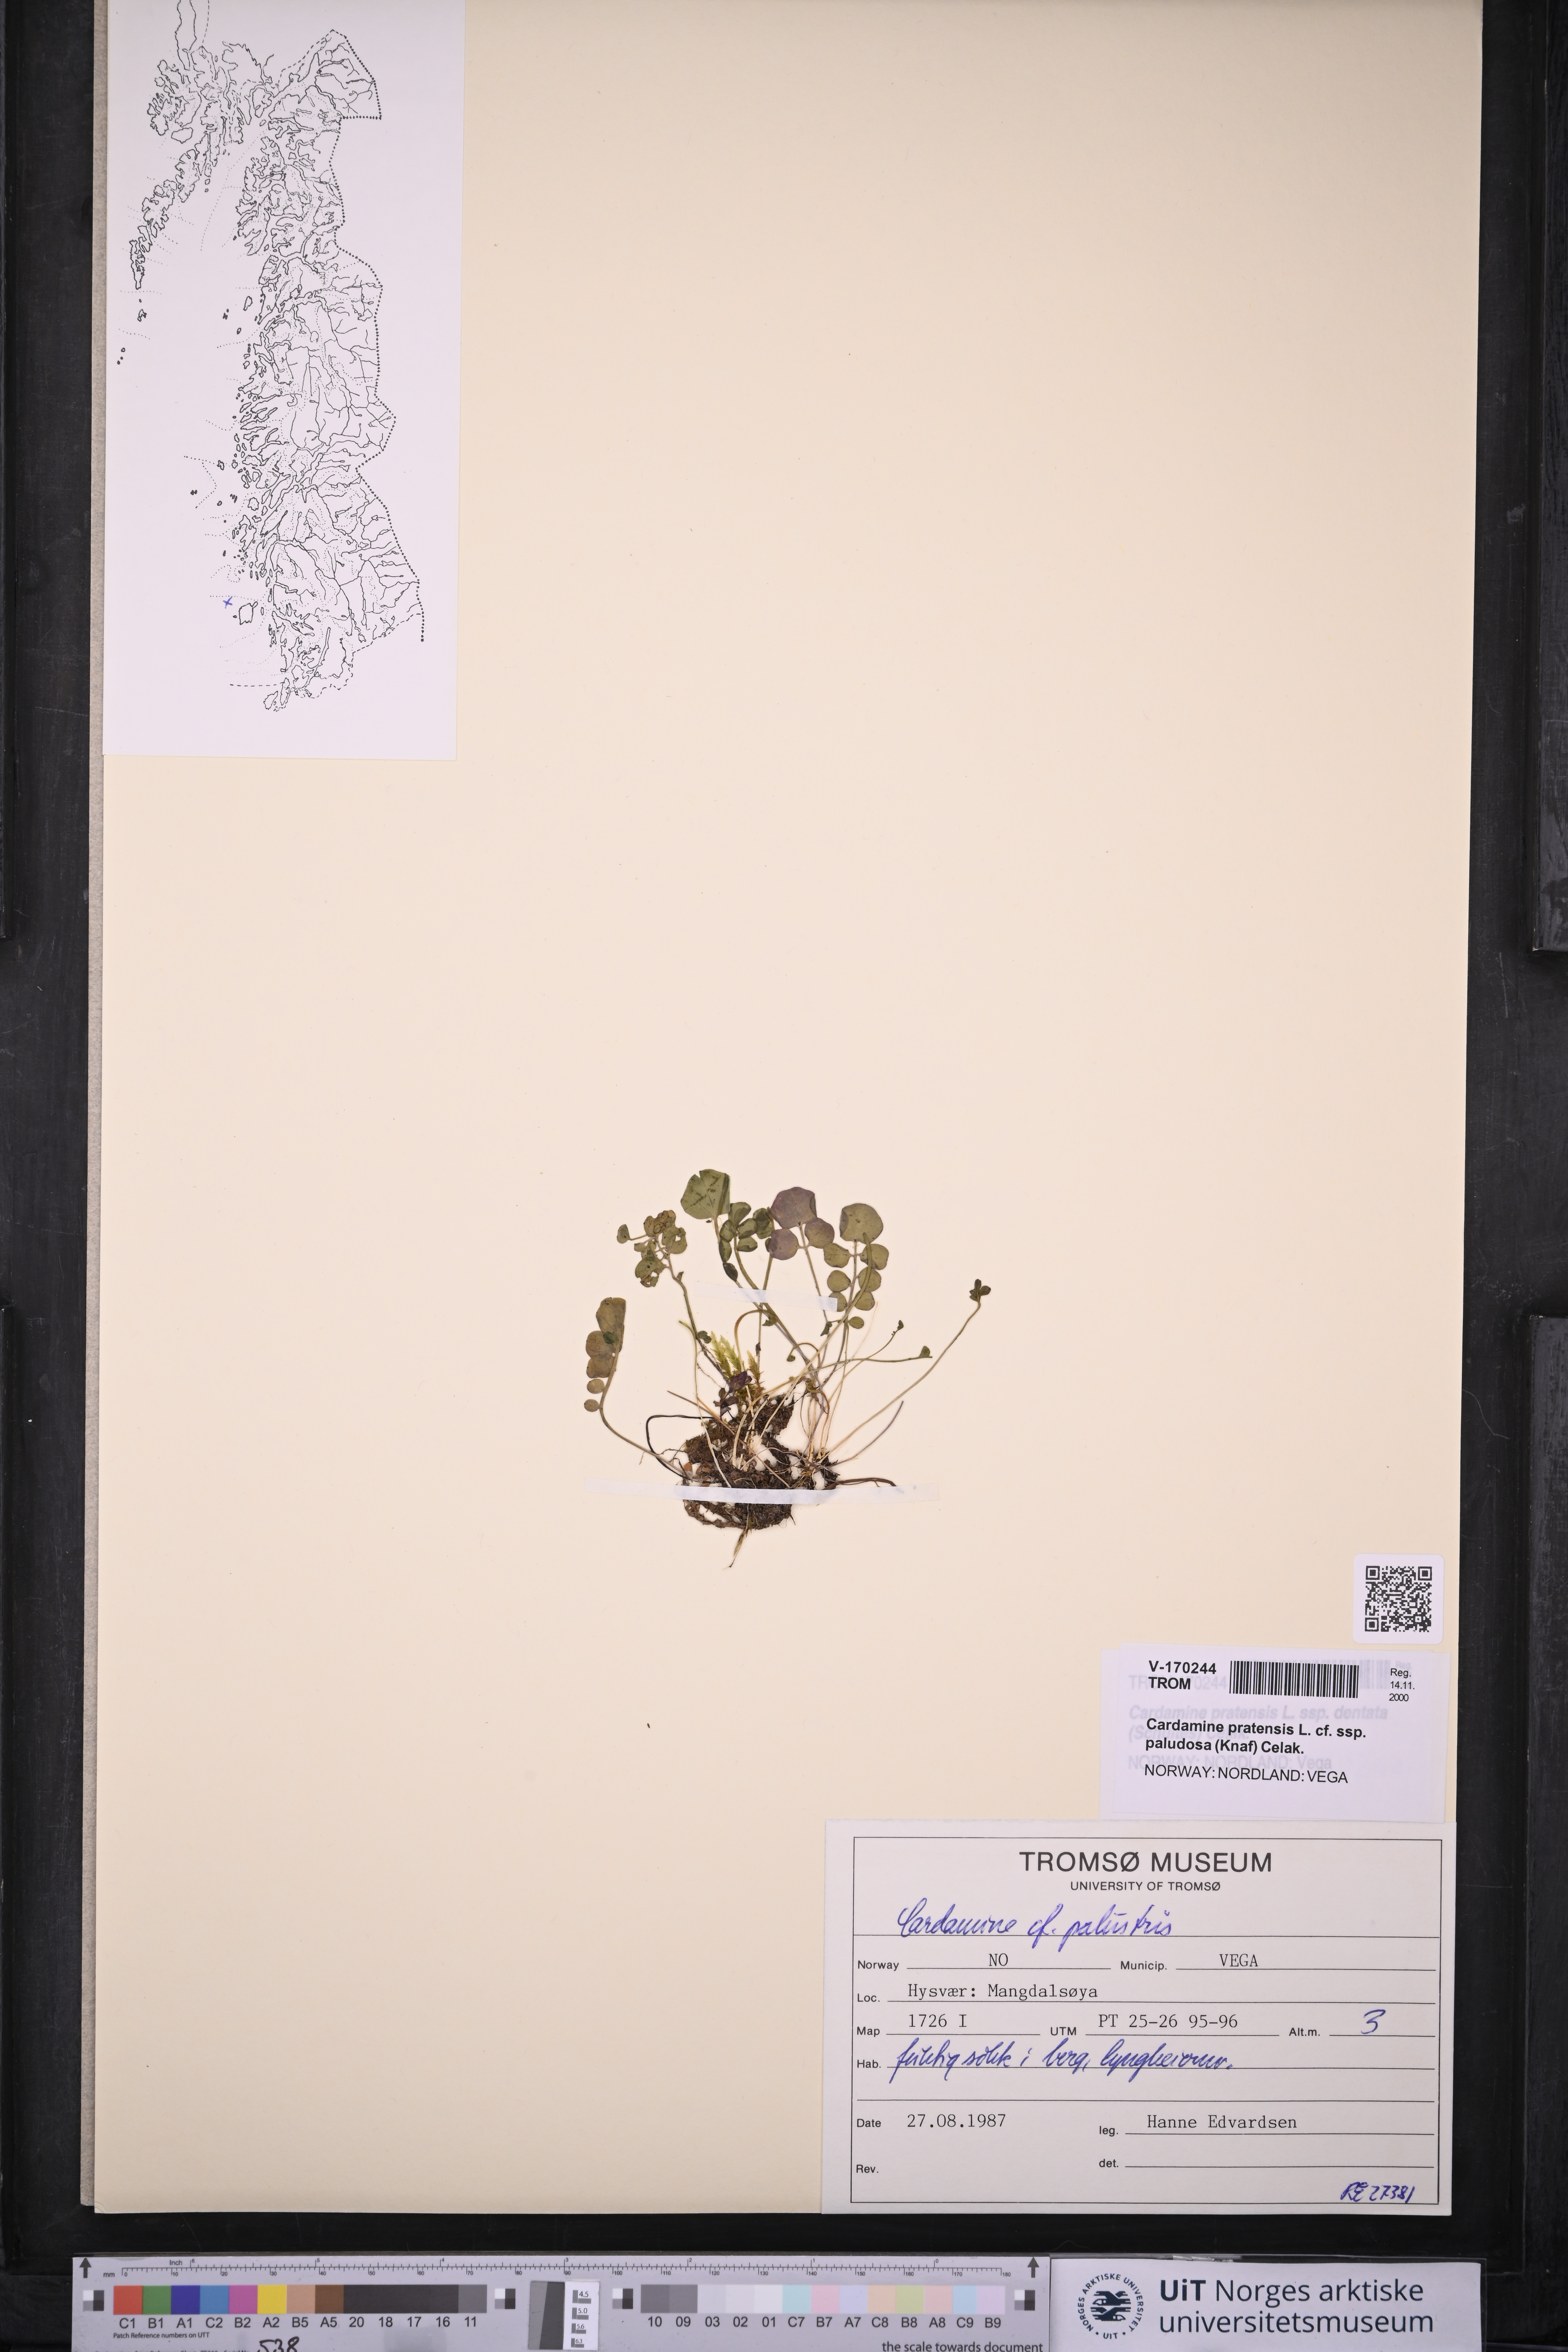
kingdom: Plantae
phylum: Tracheophyta
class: Magnoliopsida
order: Brassicales
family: Brassicaceae
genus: Cardamine
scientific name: Cardamine dentata
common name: Toothed bittercress
